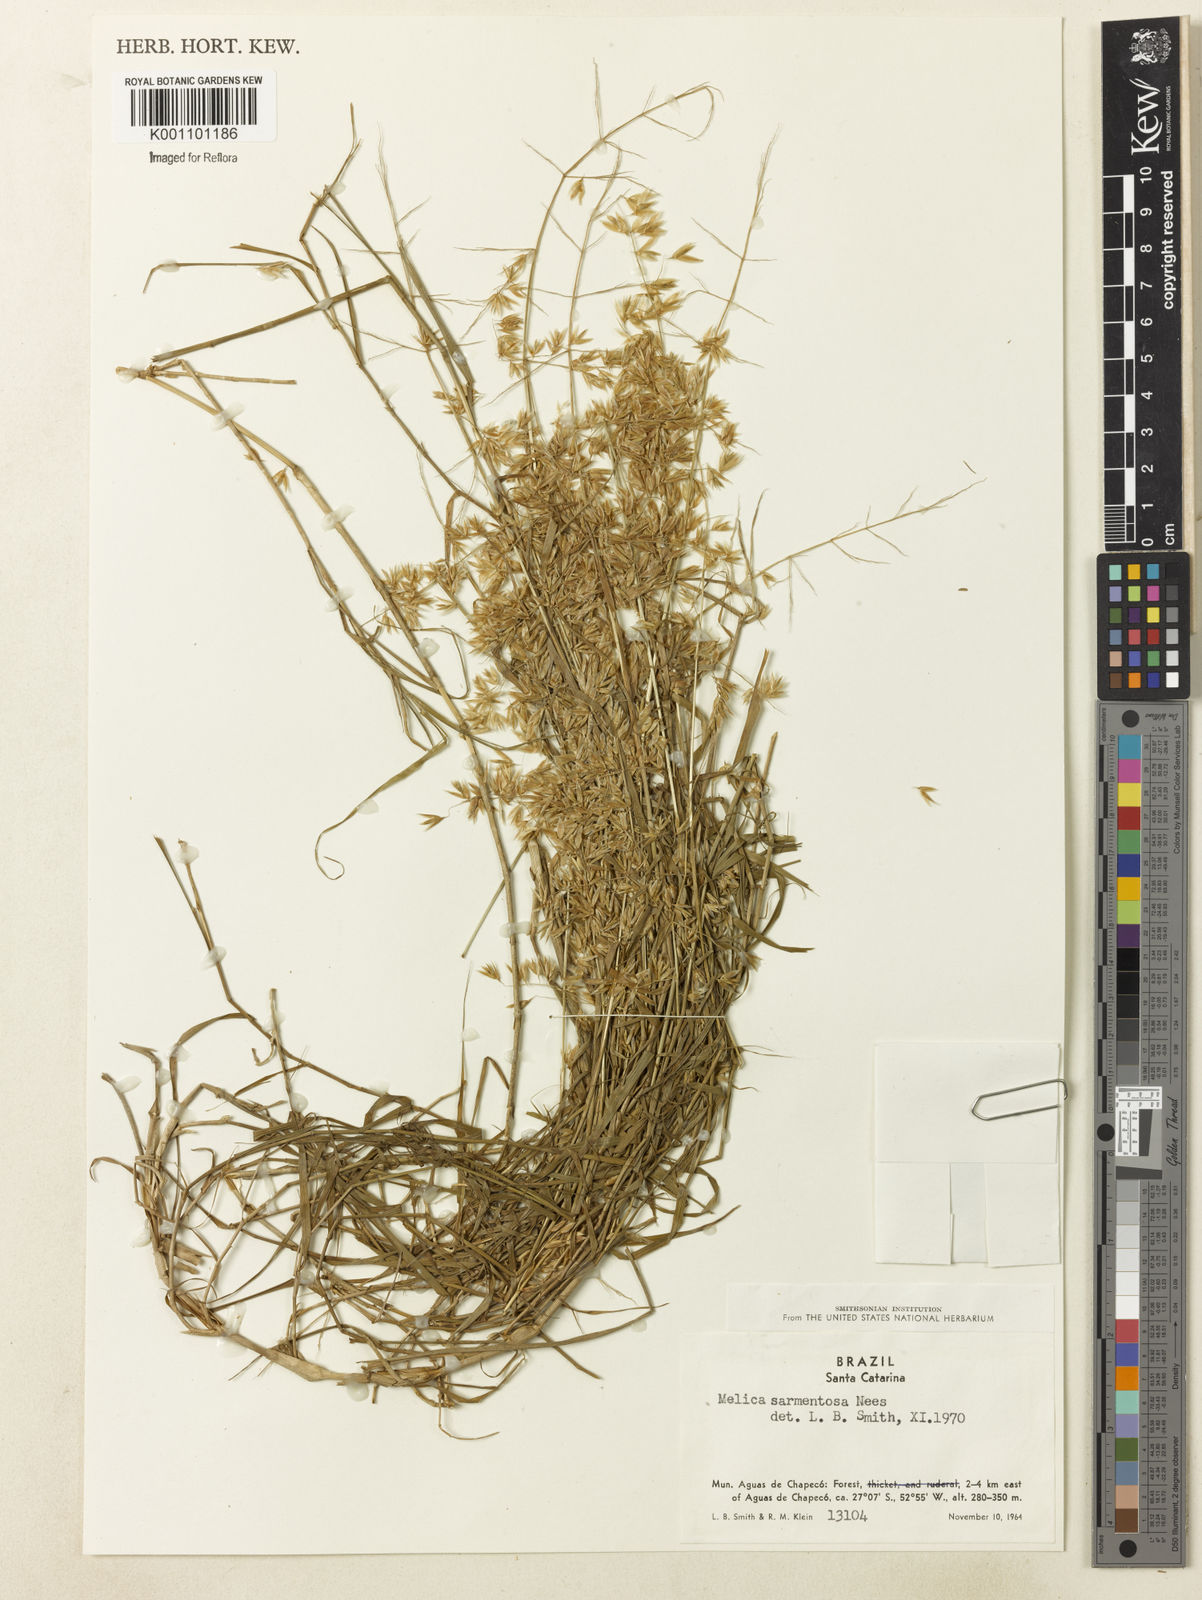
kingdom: Plantae
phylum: Tracheophyta
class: Liliopsida
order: Poales
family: Poaceae
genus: Melica
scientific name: Melica sarmentosa
